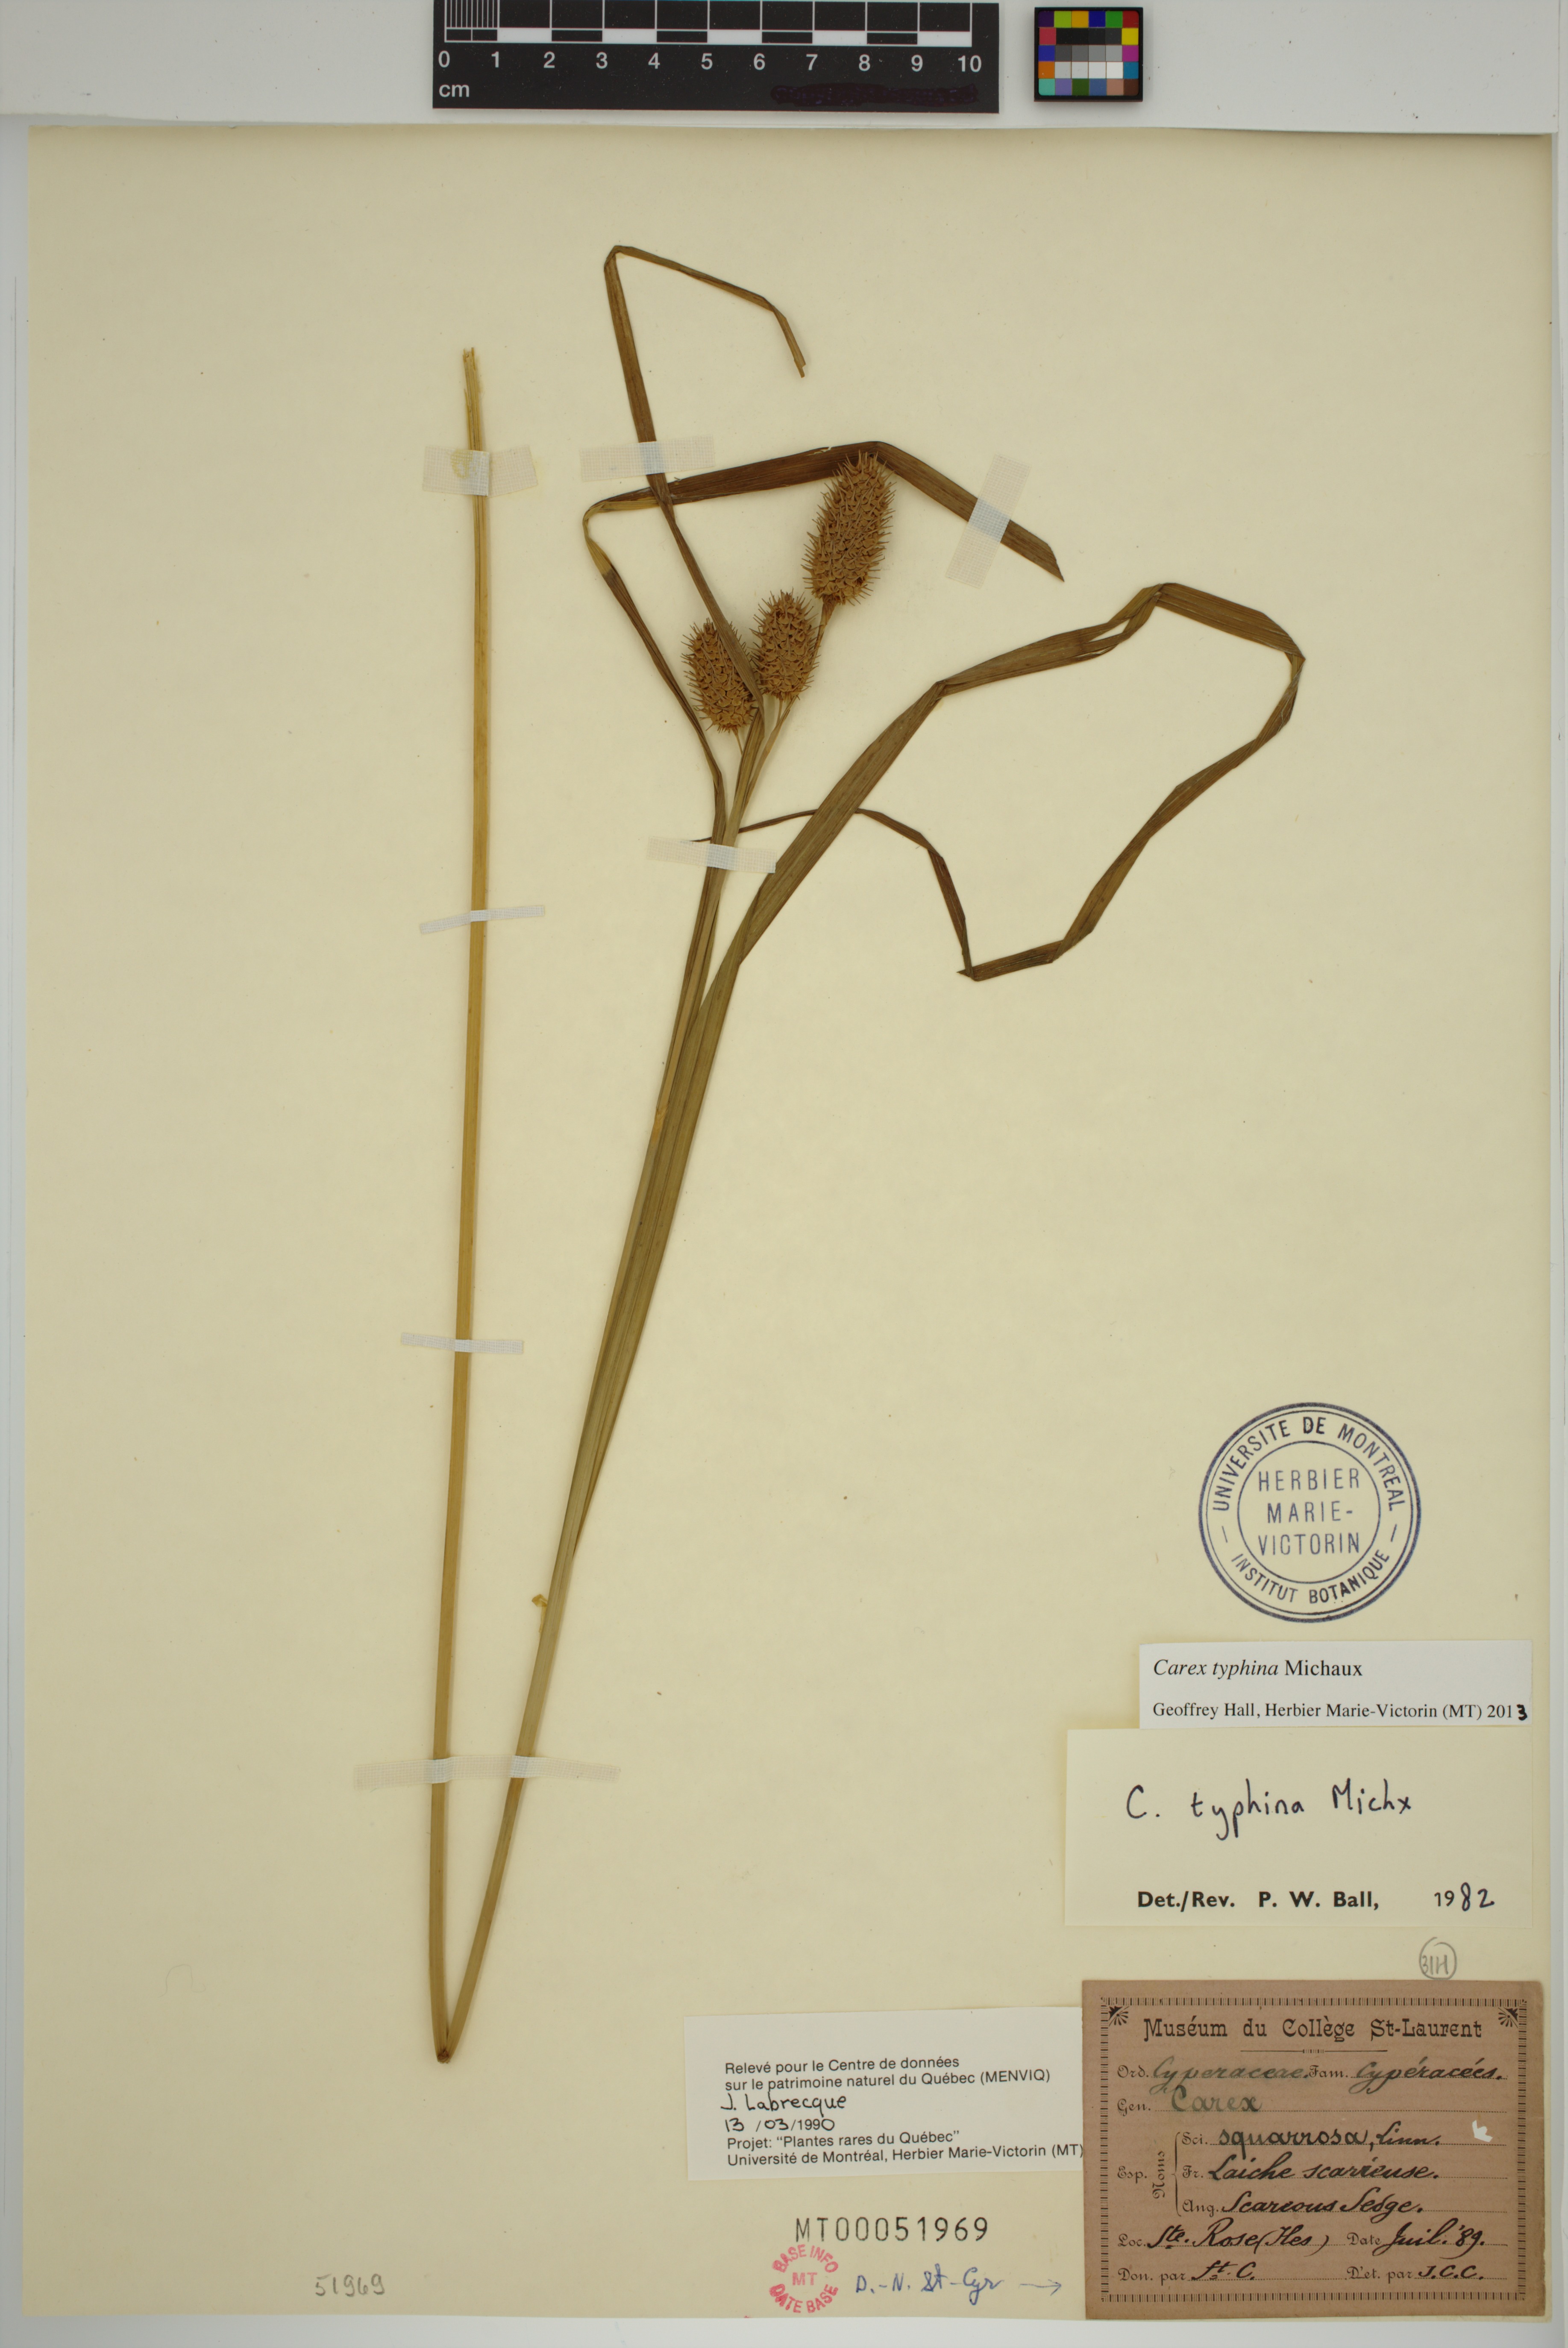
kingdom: Plantae
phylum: Tracheophyta
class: Liliopsida
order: Poales
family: Cyperaceae
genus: Carex
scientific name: Carex typhina
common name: Cattail sedge
